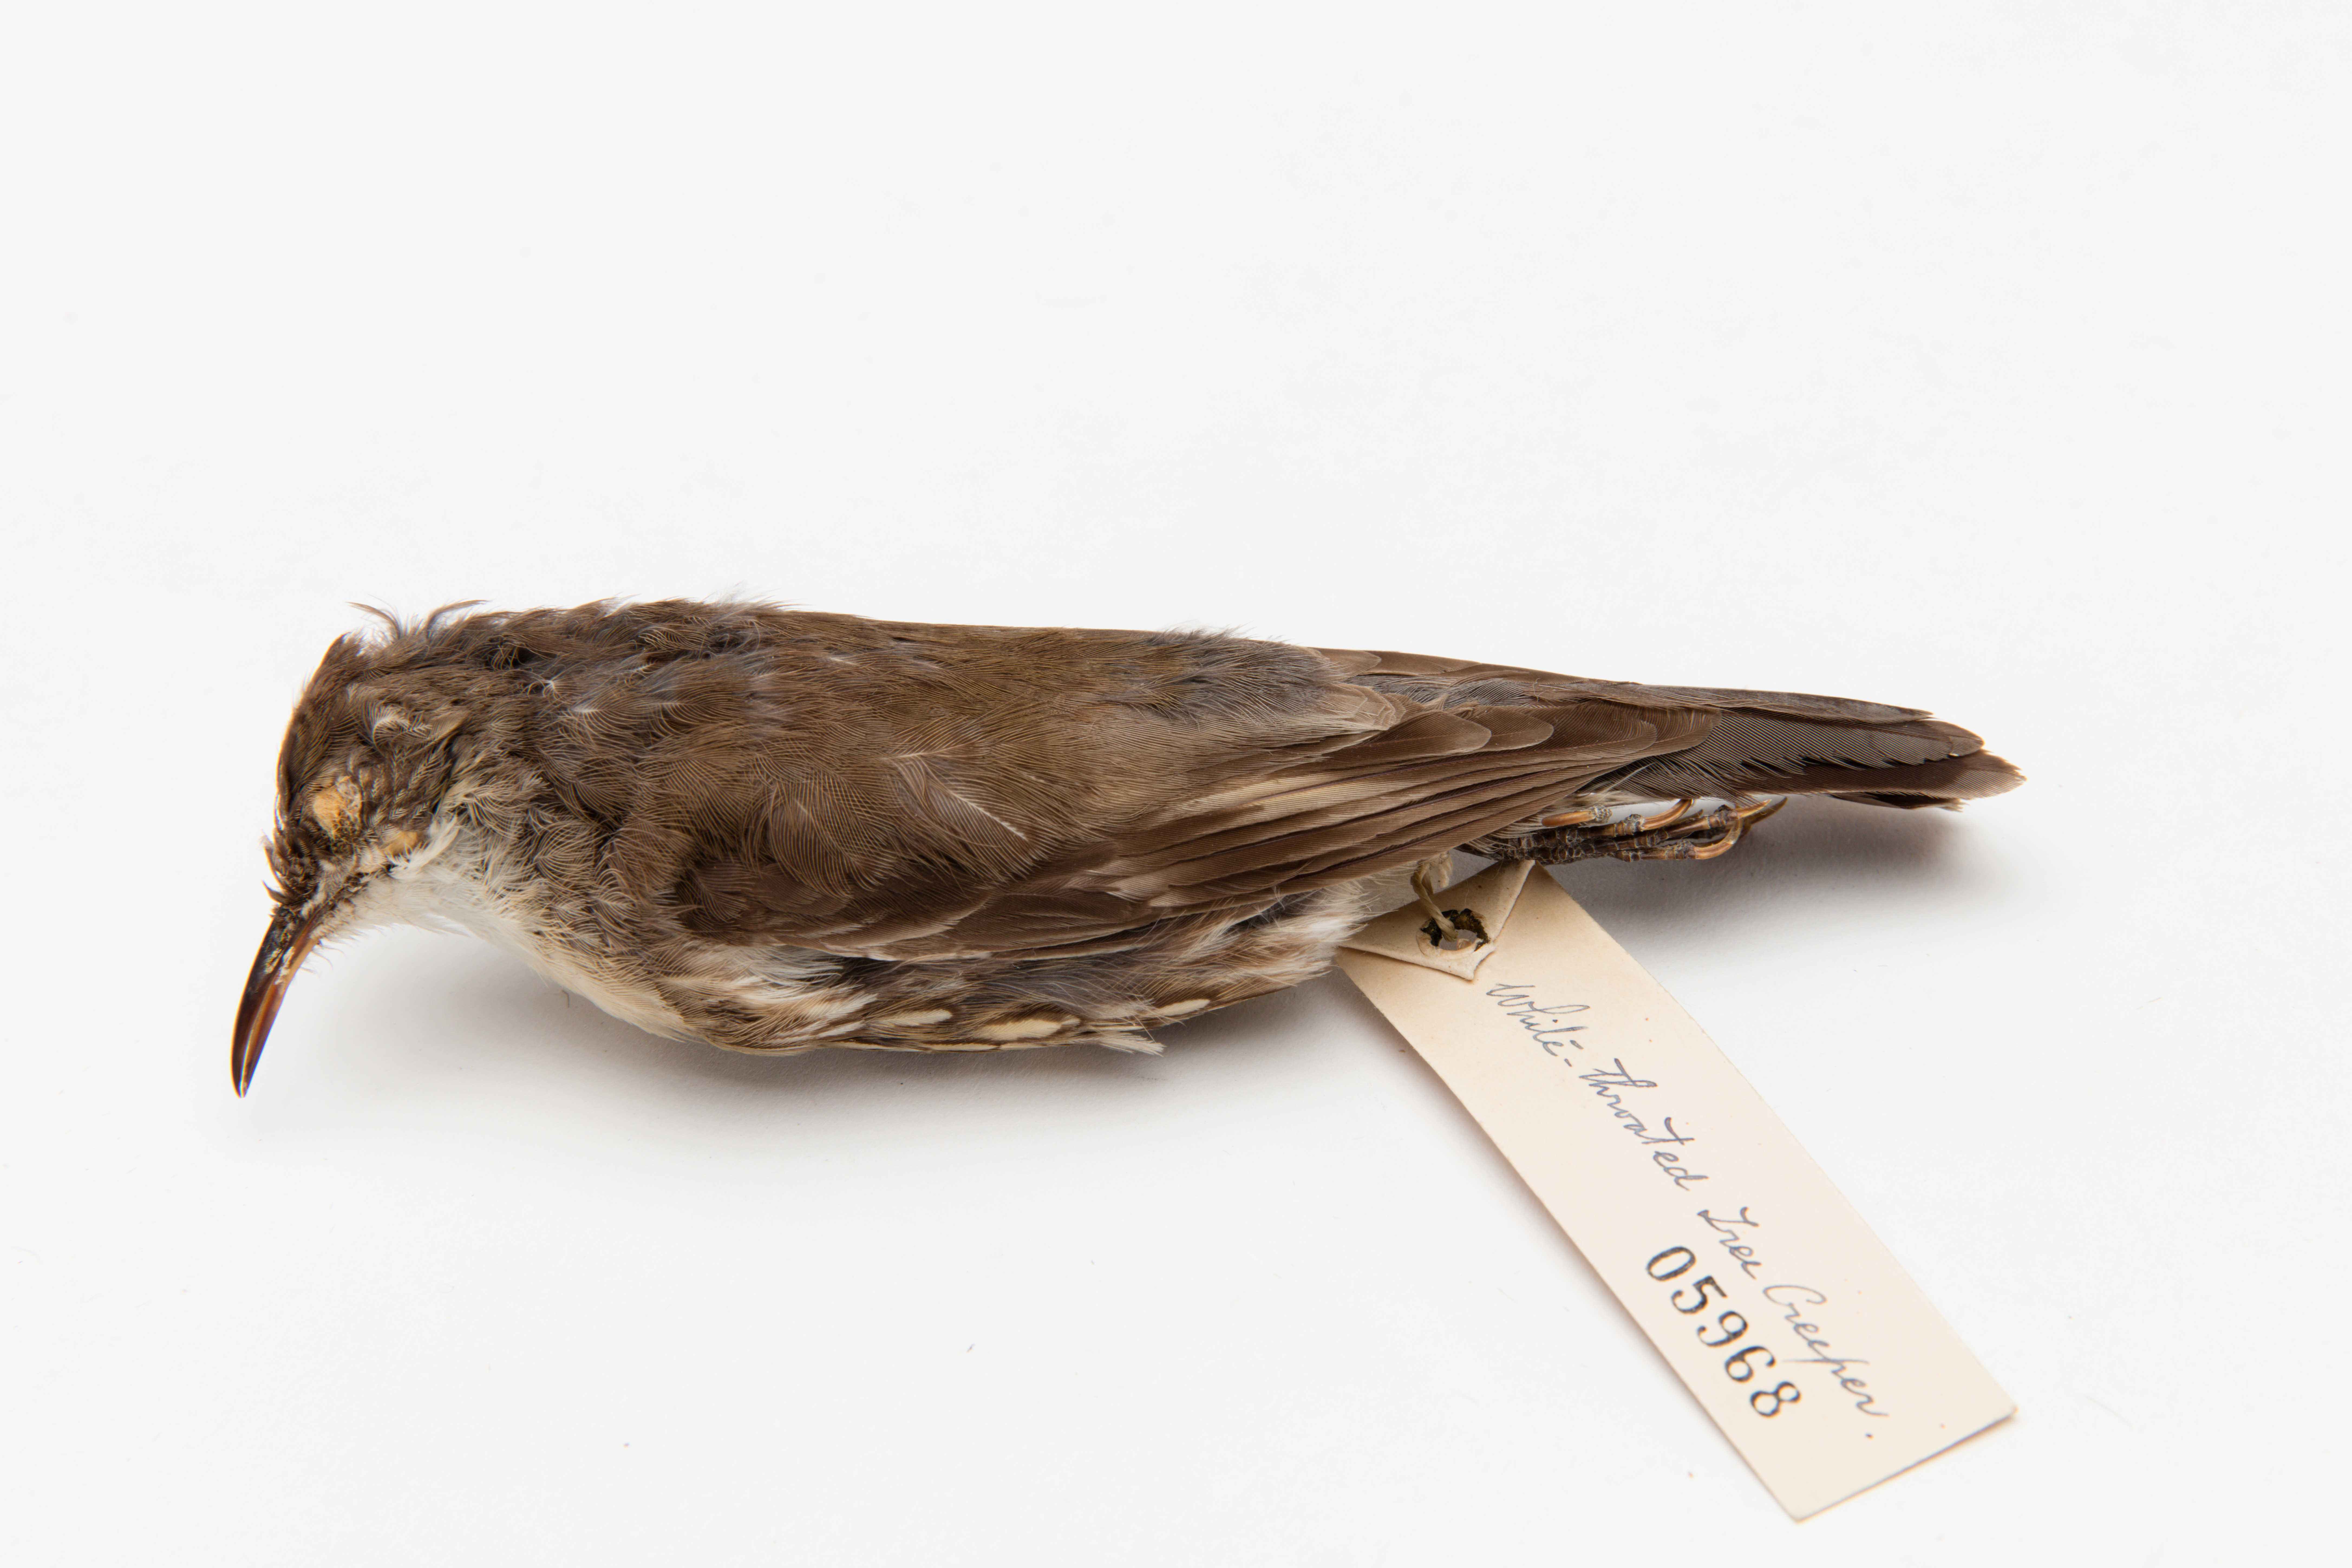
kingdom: Animalia
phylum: Chordata
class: Aves
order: Passeriformes
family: Climacteridae
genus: Climacteris
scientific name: Climacteris
